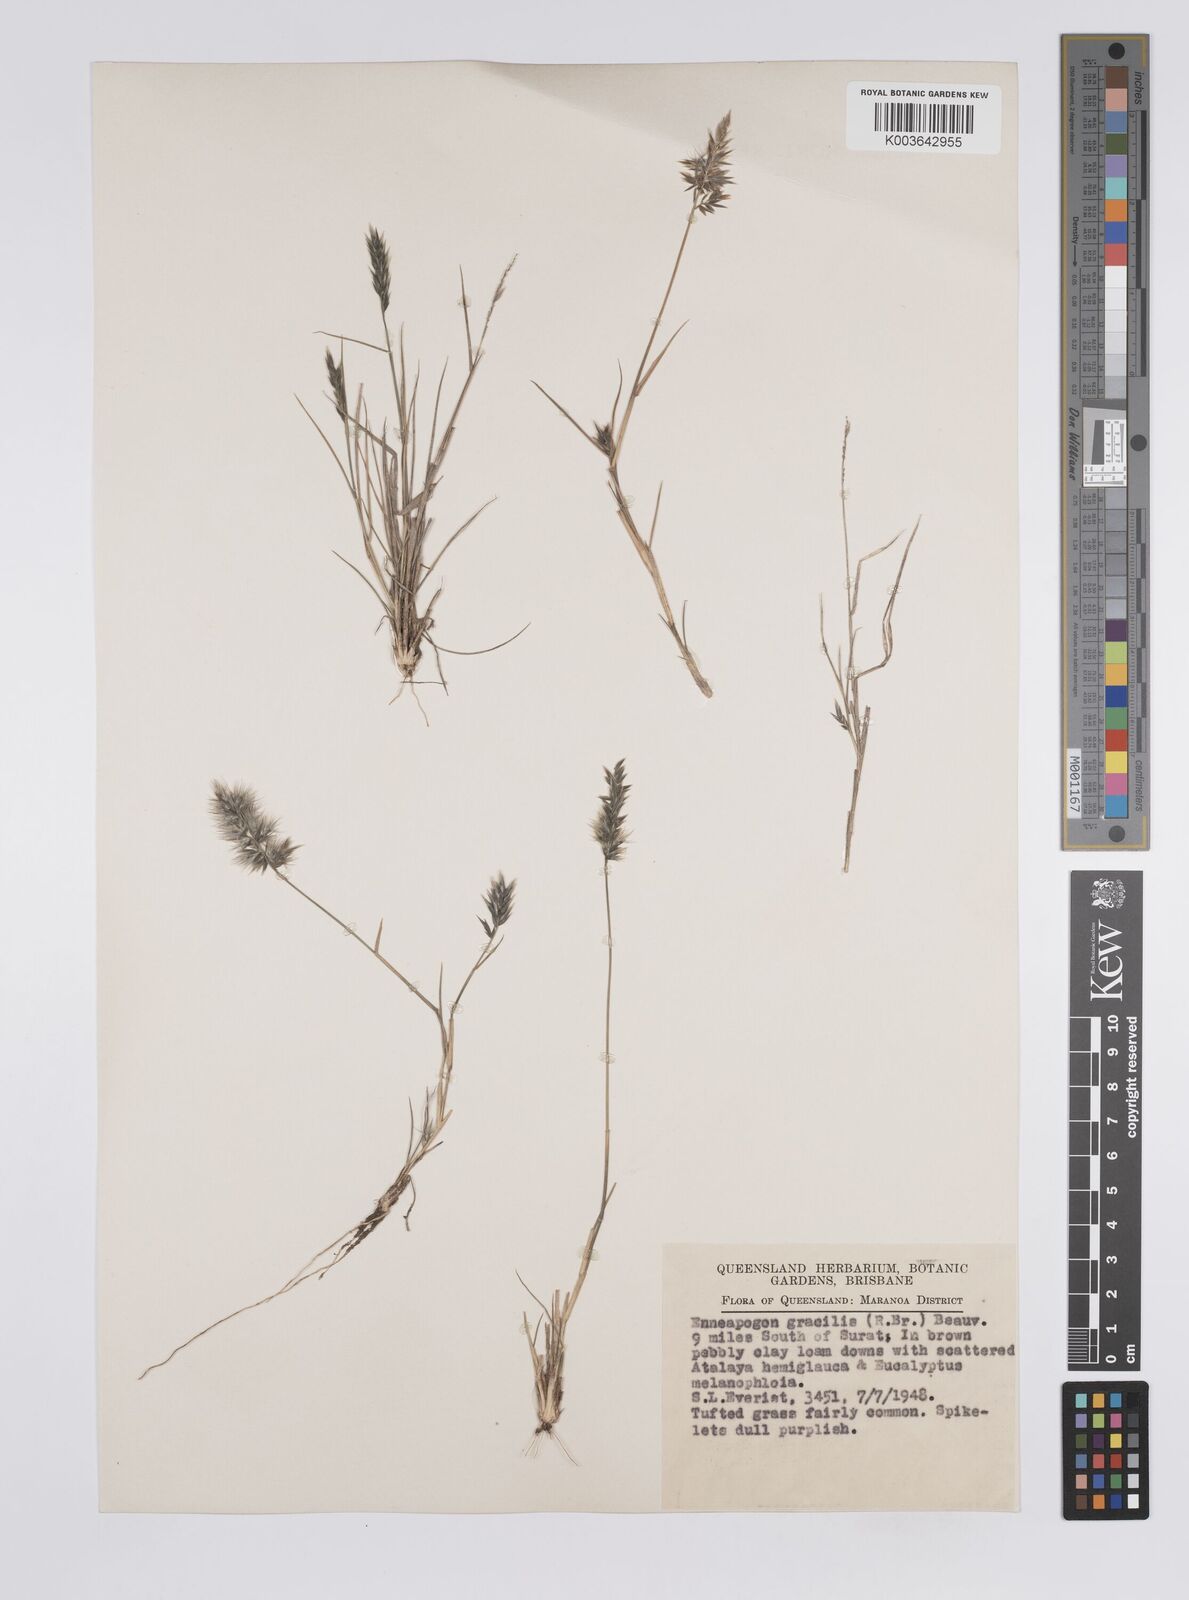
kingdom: Plantae
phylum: Tracheophyta
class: Liliopsida
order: Poales
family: Poaceae
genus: Enneapogon
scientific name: Enneapogon gracilis
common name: Slender bottle-washers
